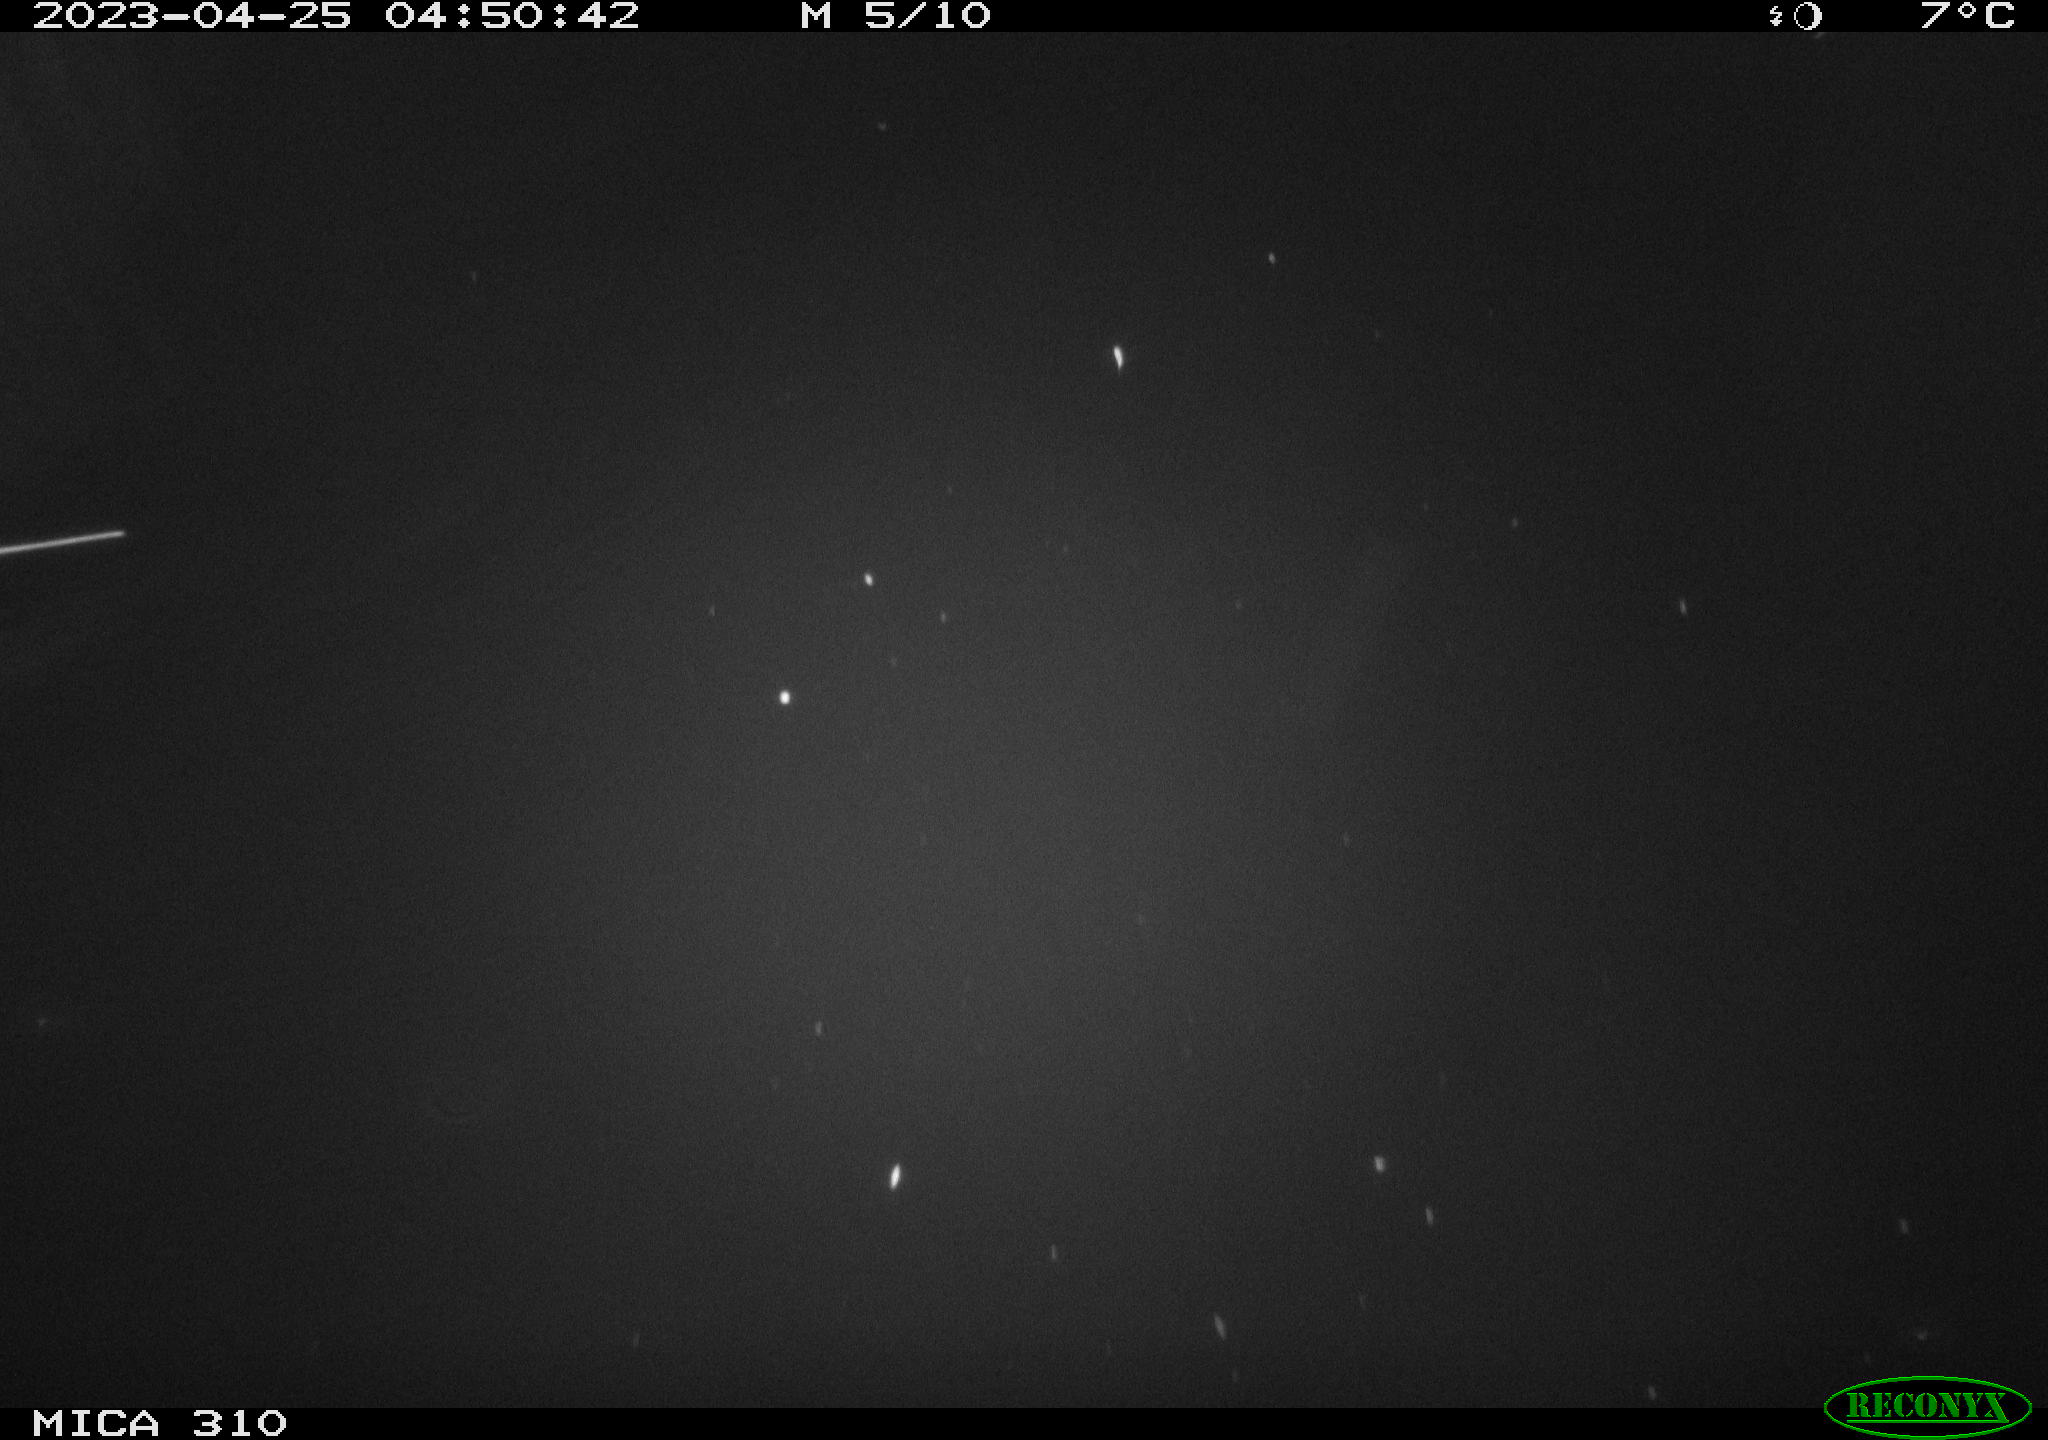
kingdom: Animalia
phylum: Chordata
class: Aves
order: Anseriformes
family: Anatidae
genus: Anas
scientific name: Anas
